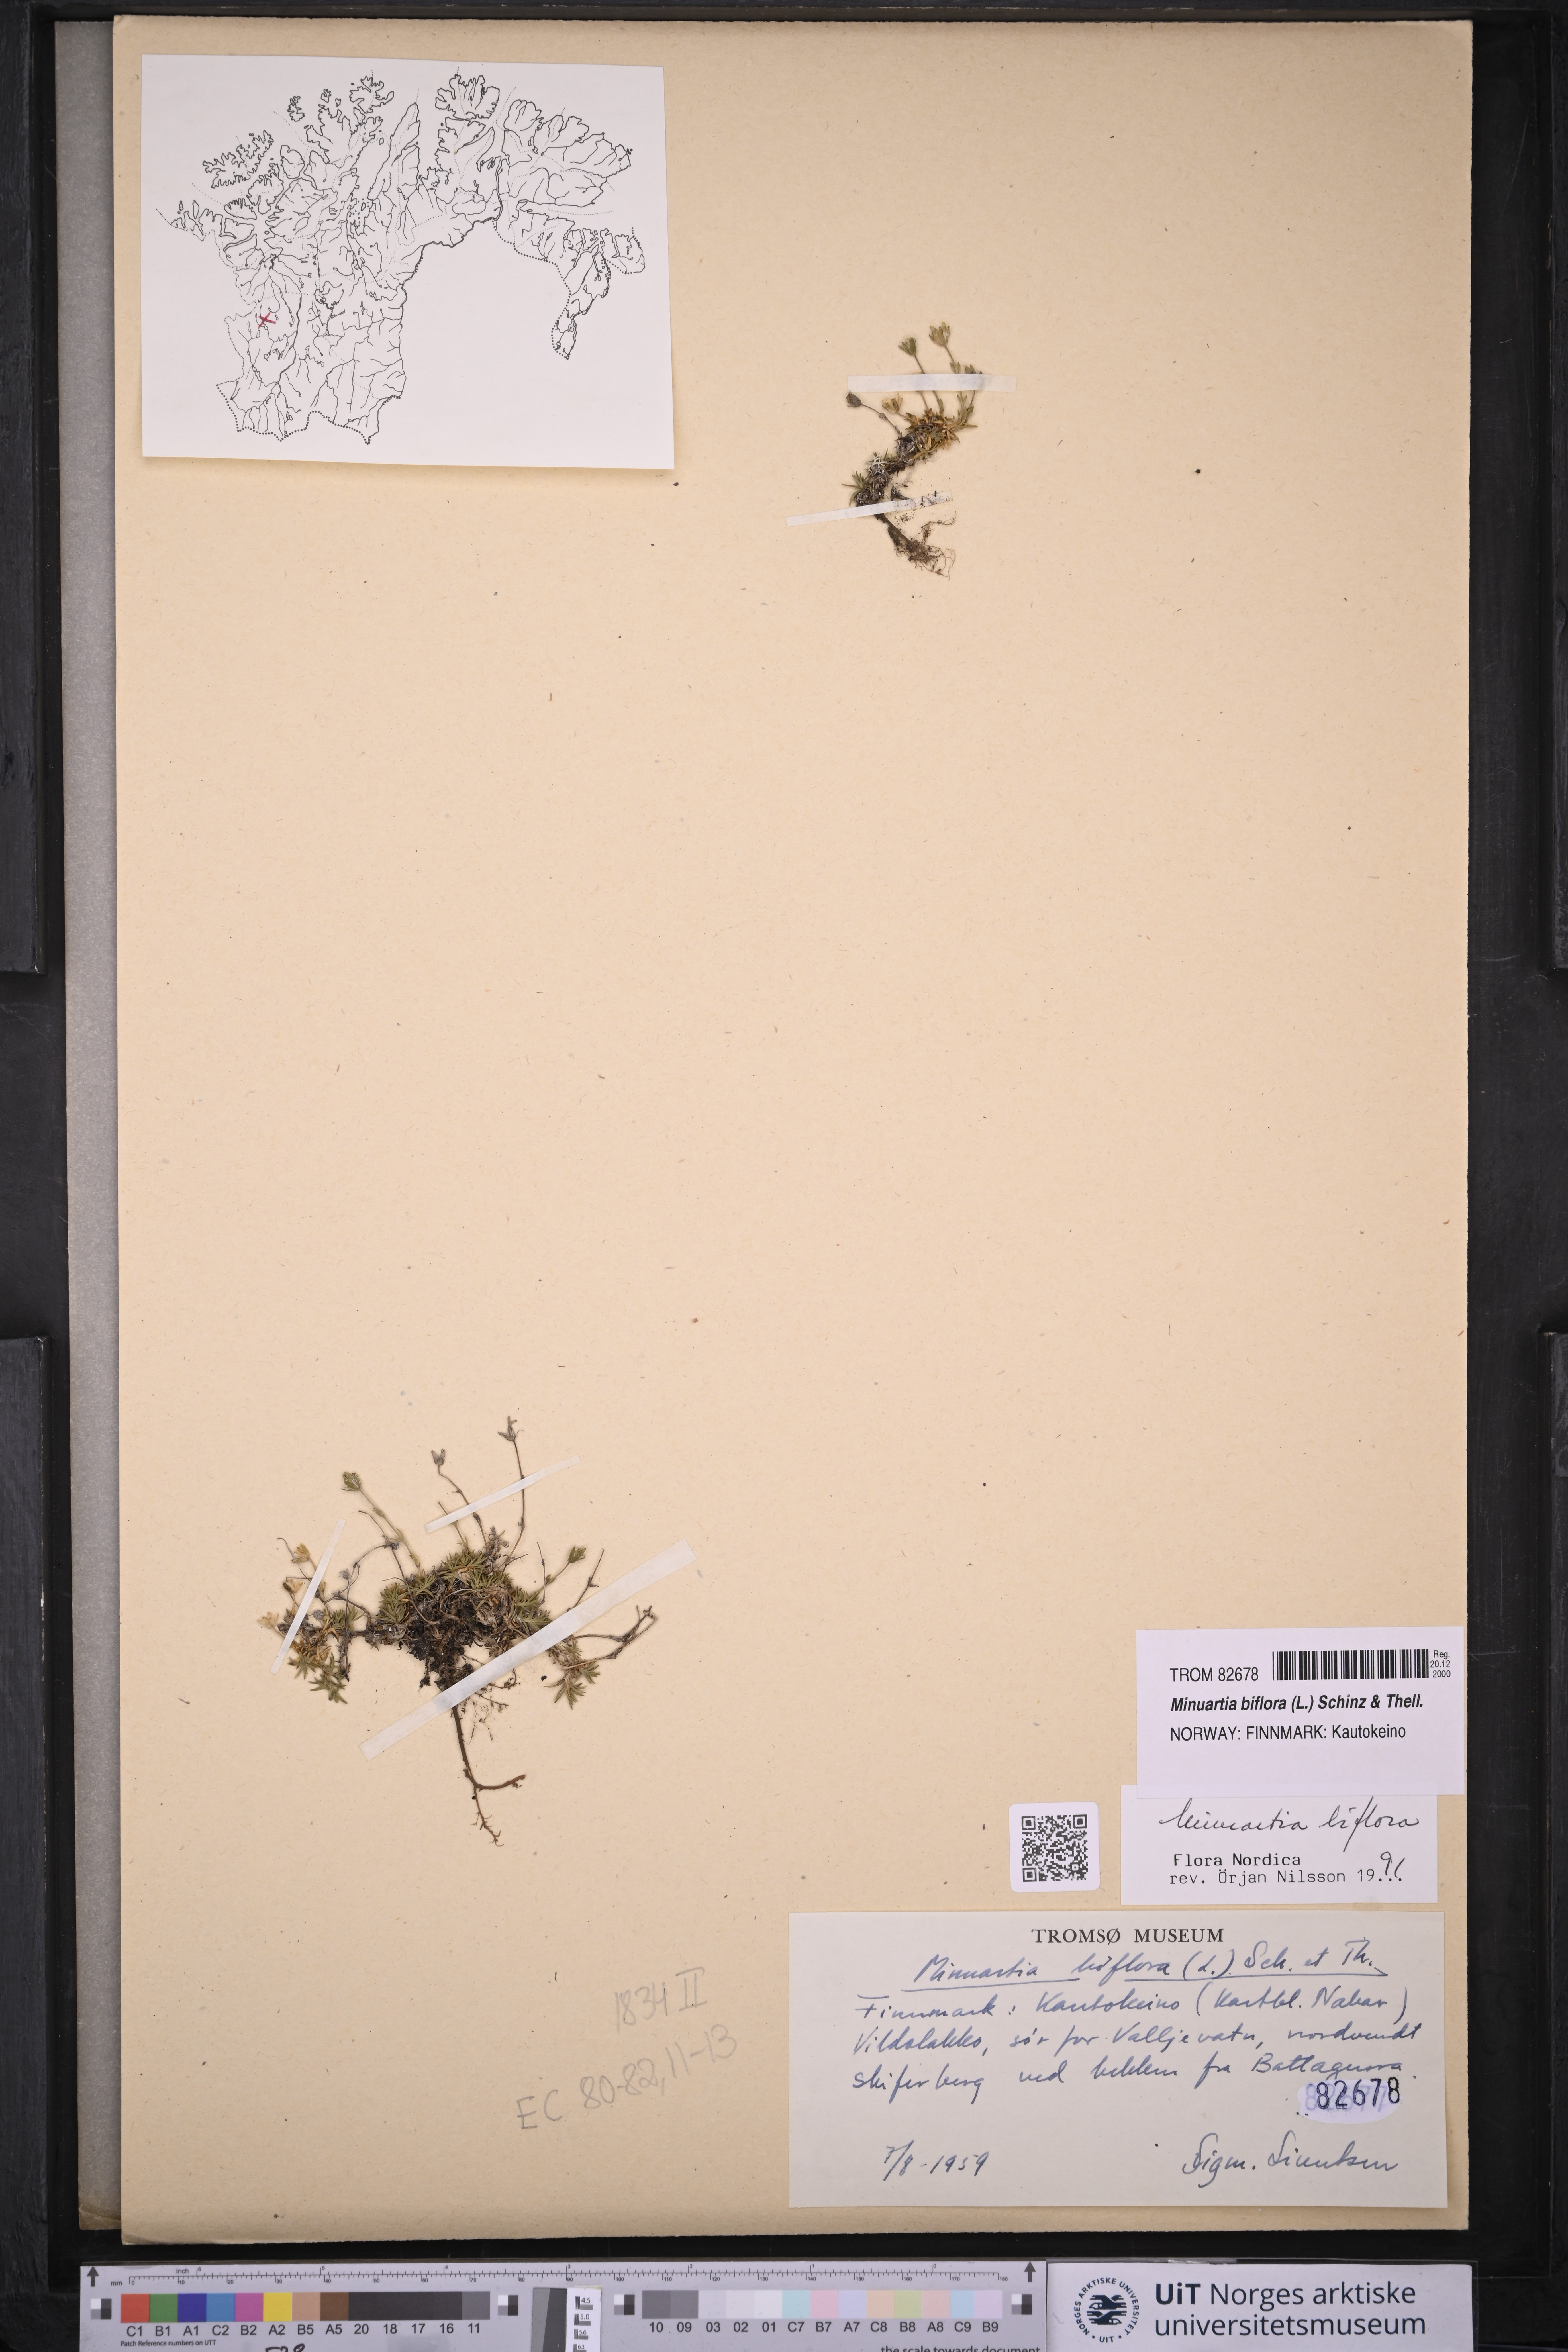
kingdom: Plantae
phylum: Tracheophyta
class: Magnoliopsida
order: Caryophyllales
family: Caryophyllaceae
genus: Cherleria
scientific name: Cherleria biflora
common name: Mountain sandwort
